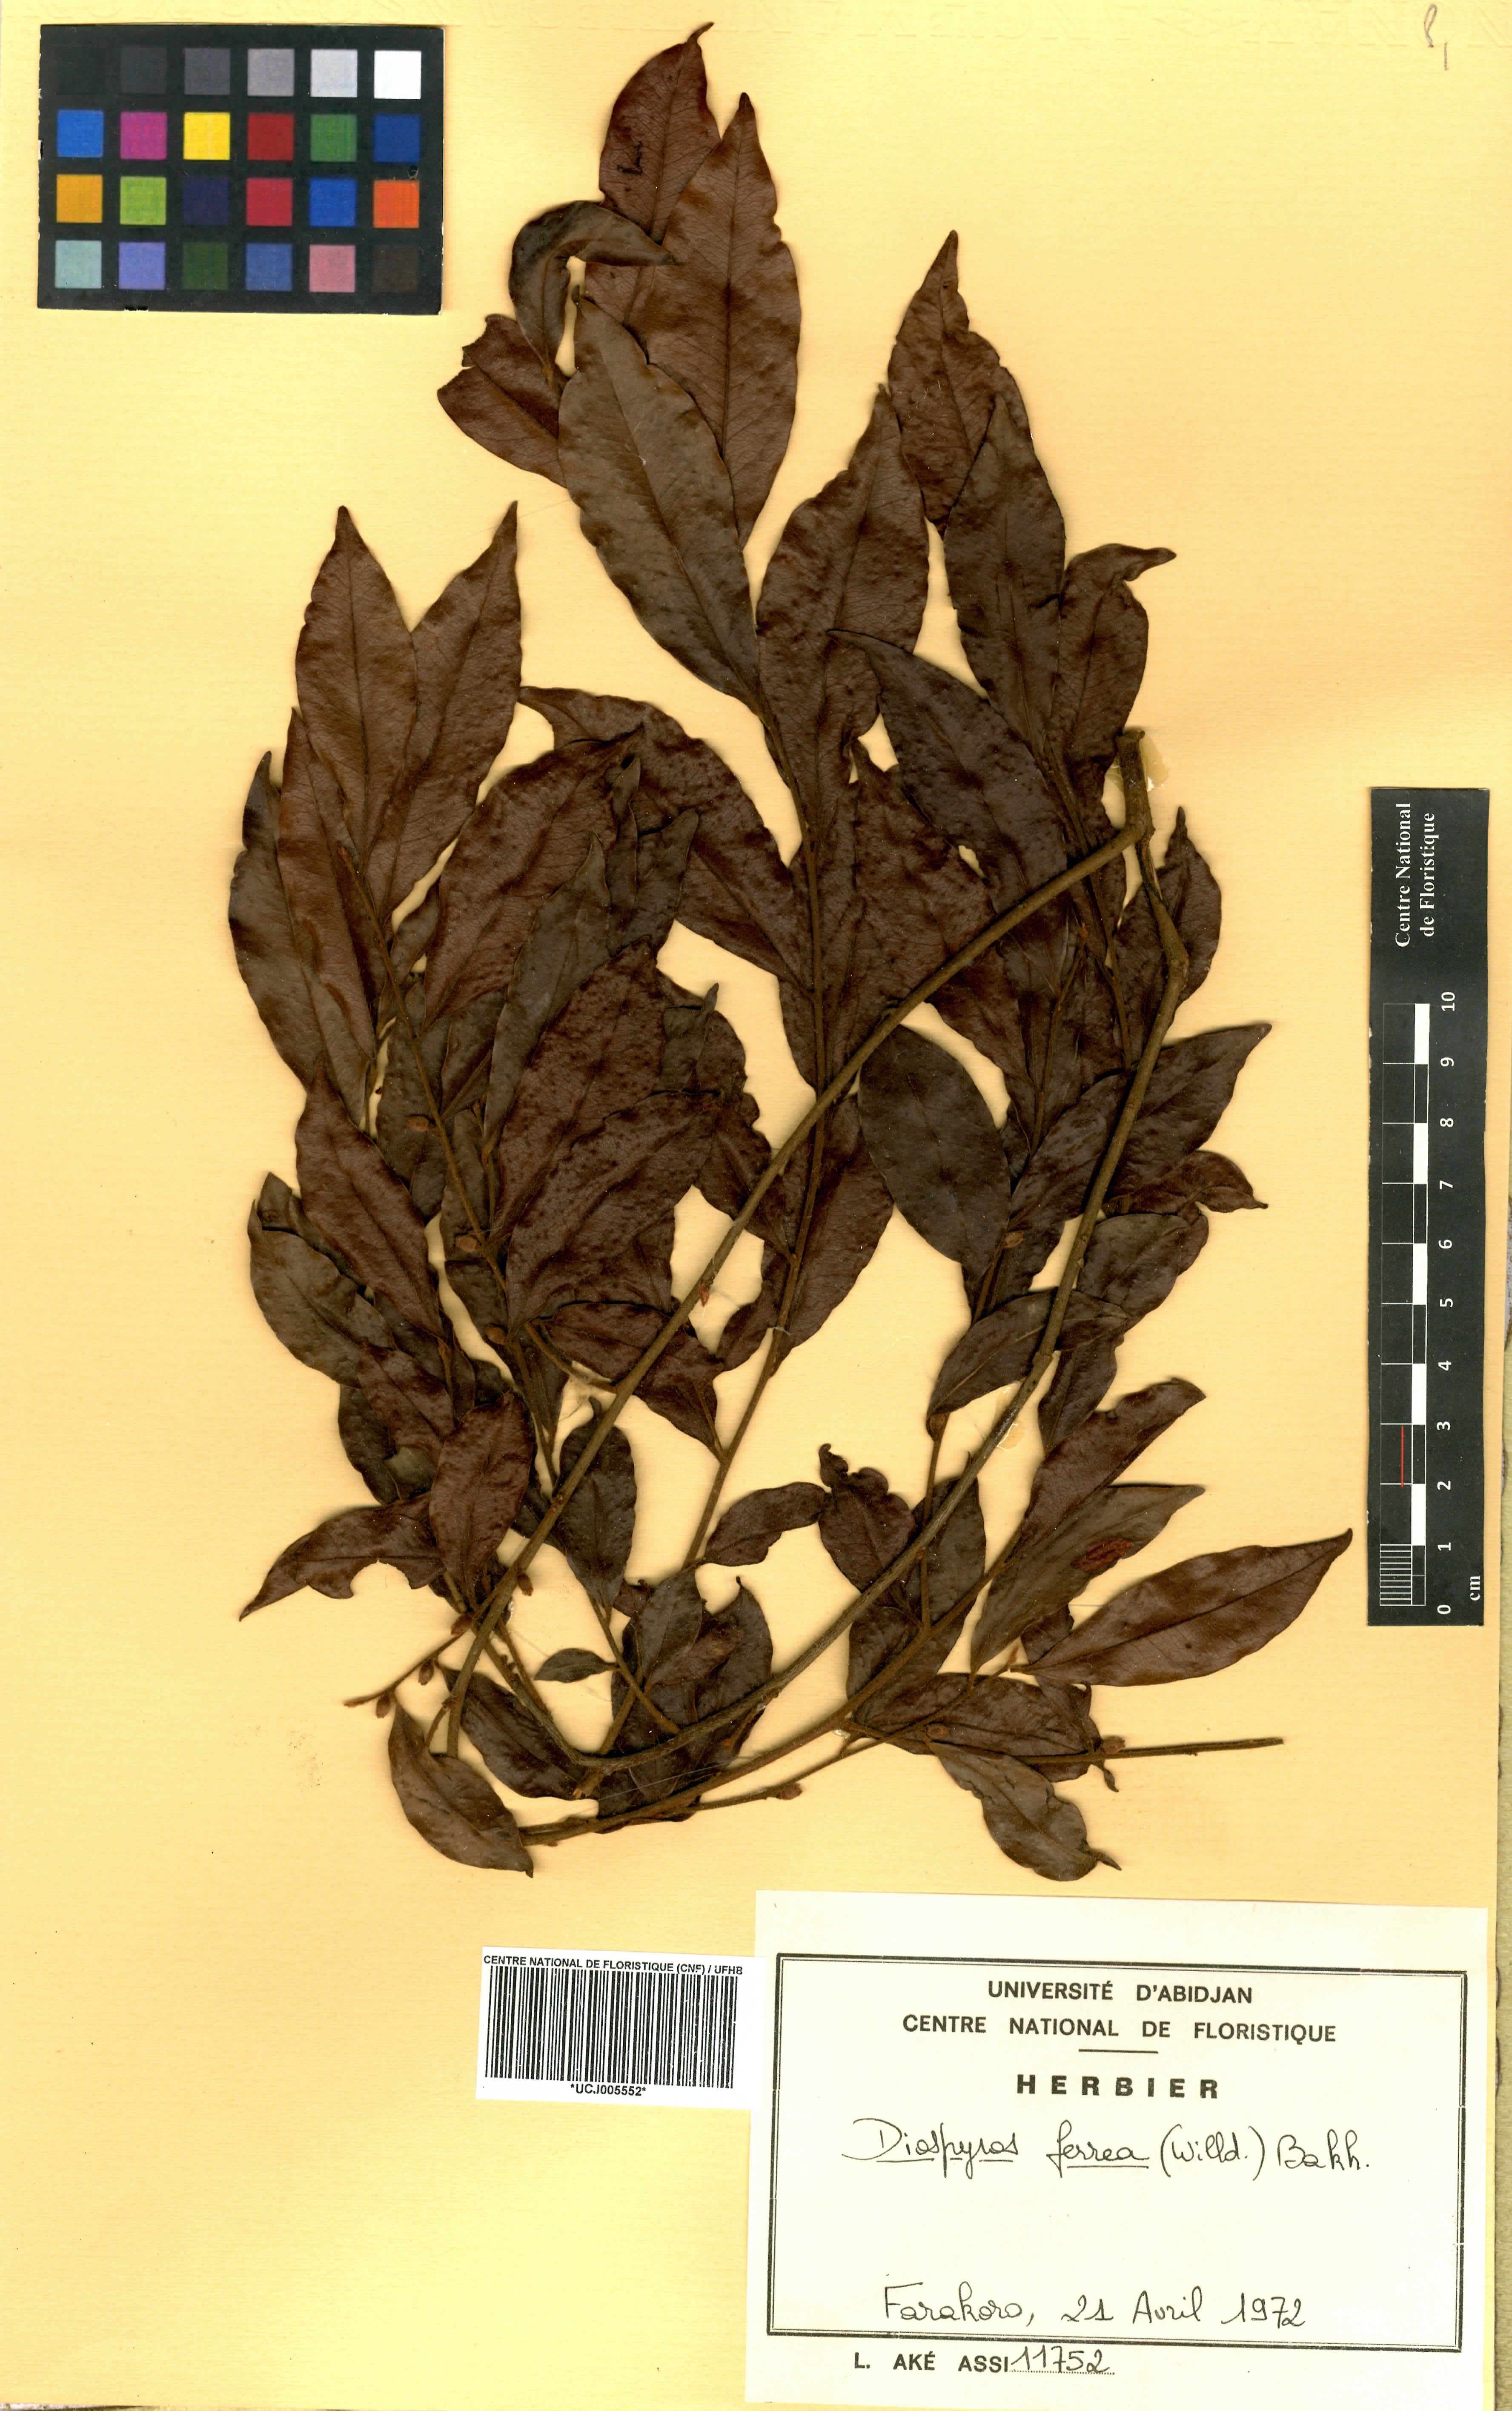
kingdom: Plantae
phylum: Tracheophyta
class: Magnoliopsida
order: Ericales
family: Ebenaceae
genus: Diospyros
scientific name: Diospyros ferrea
